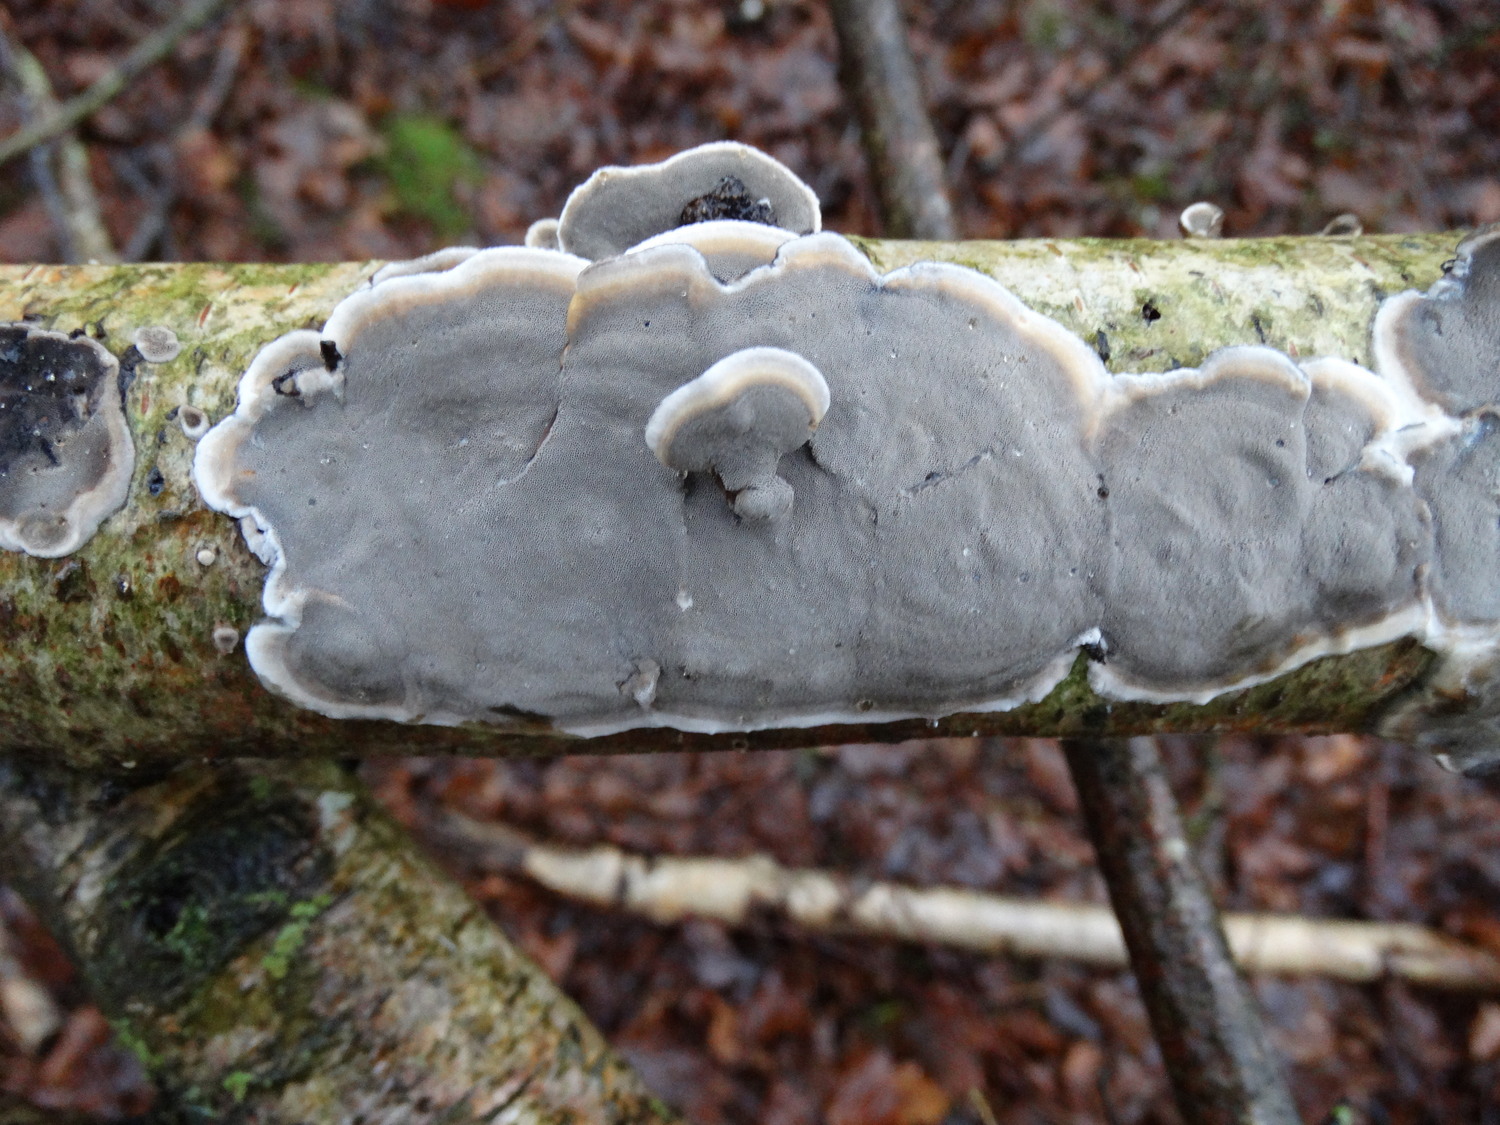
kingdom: Fungi
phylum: Basidiomycota
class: Agaricomycetes
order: Polyporales
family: Phanerochaetaceae
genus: Bjerkandera
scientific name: Bjerkandera adusta
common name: sveden sodporesvamp
